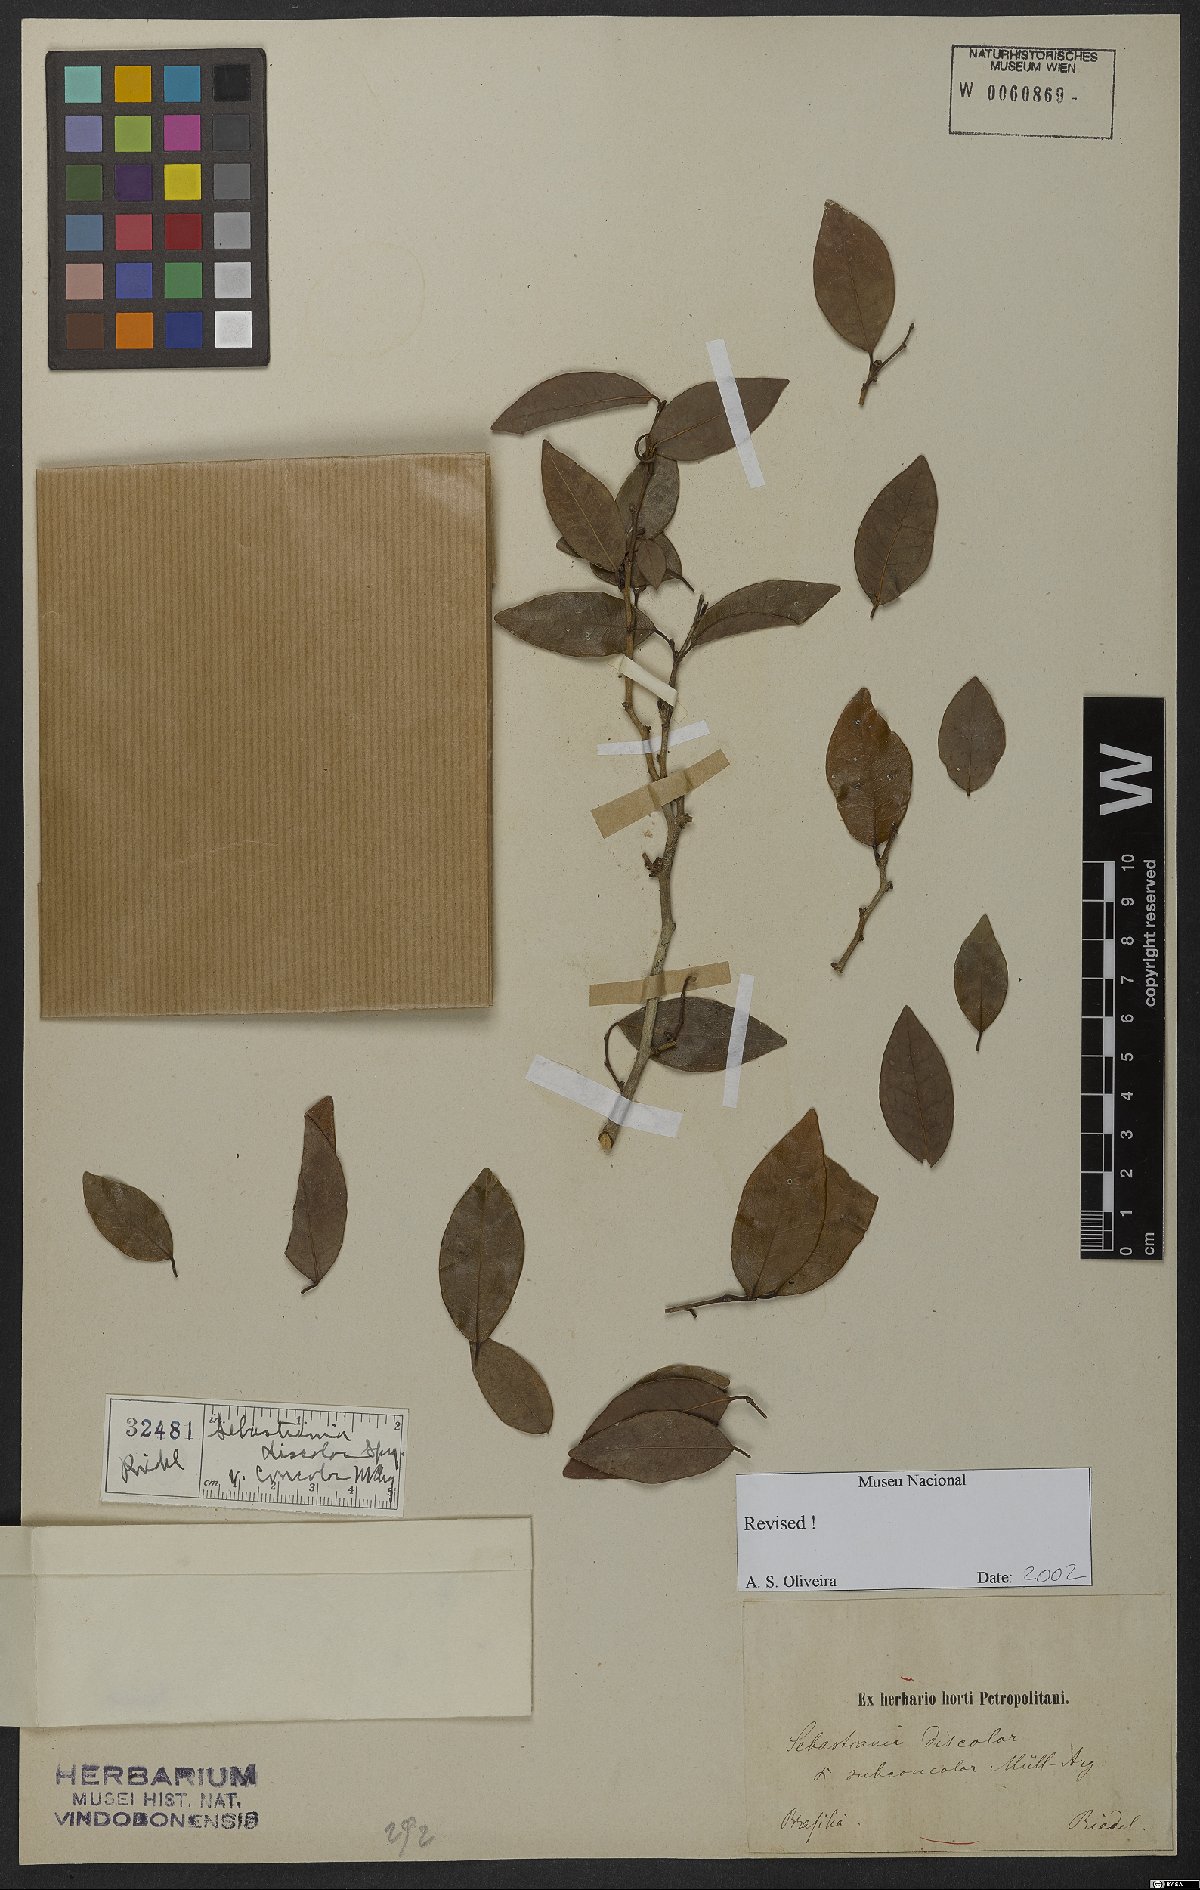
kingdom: Plantae
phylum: Tracheophyta
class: Magnoliopsida
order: Malpighiales
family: Euphorbiaceae
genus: Gymnanthes
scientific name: Gymnanthes discolor
